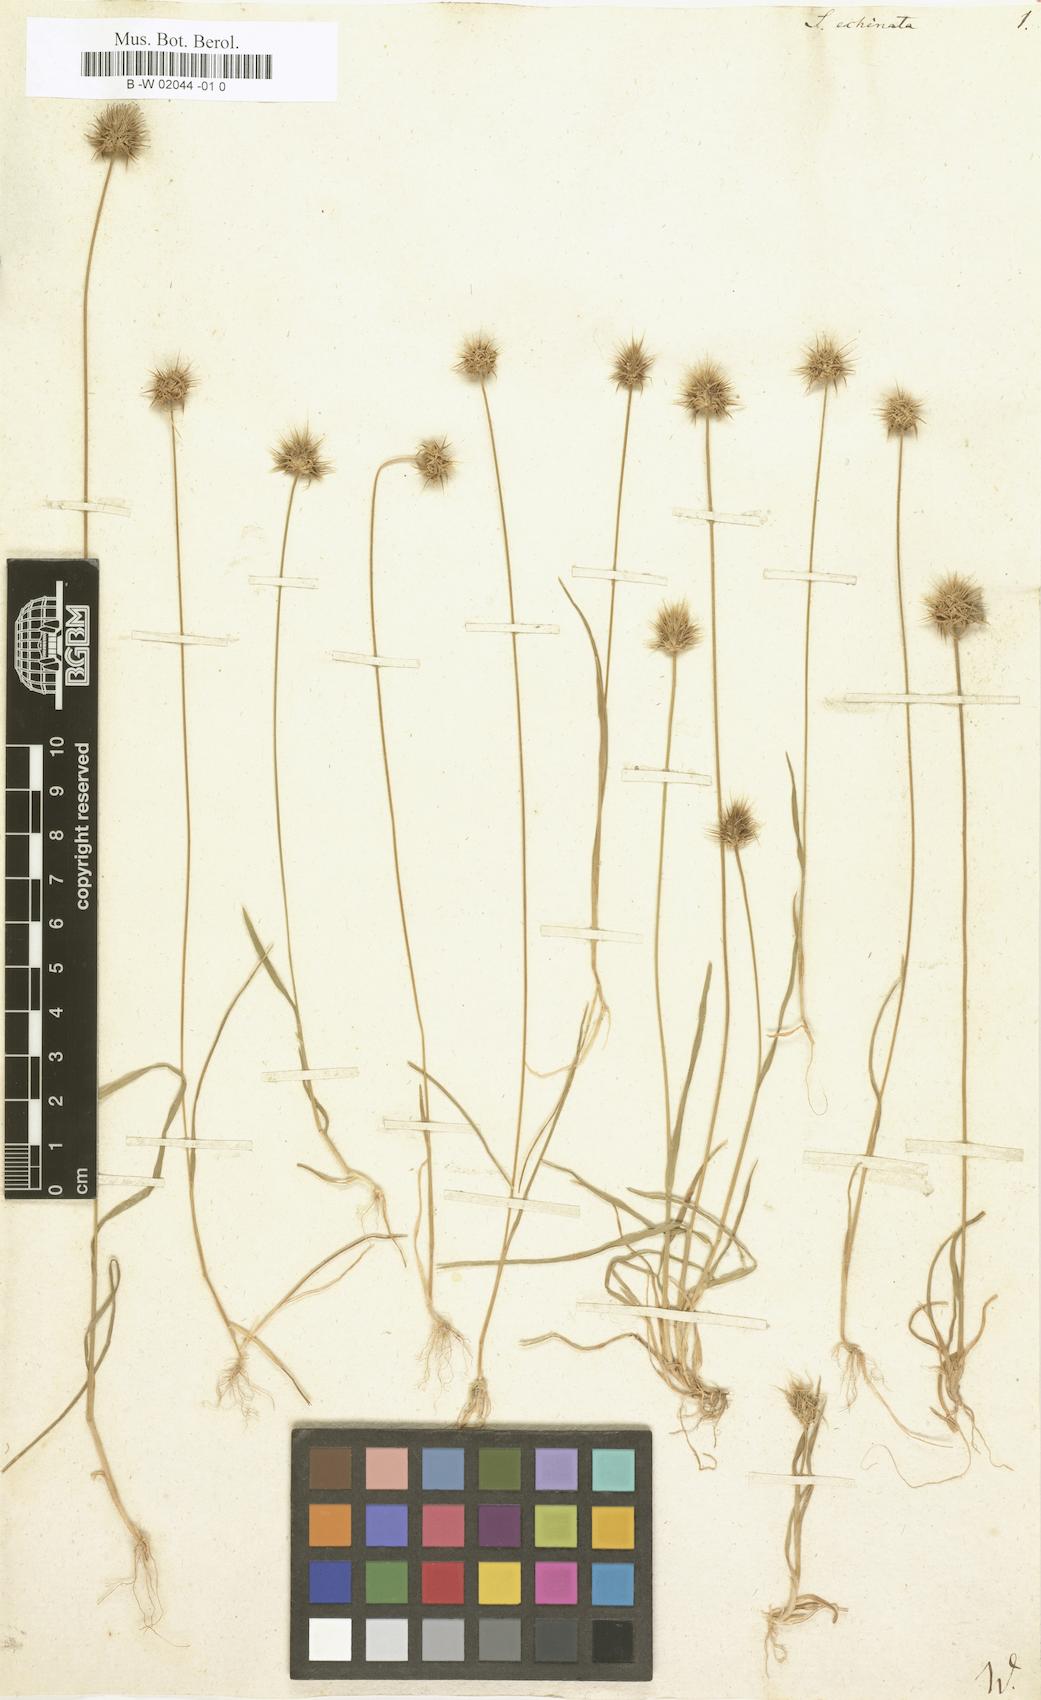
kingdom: Plantae
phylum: Tracheophyta
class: Liliopsida
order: Poales
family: Poaceae
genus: Ammochloa
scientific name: Ammochloa pungens
